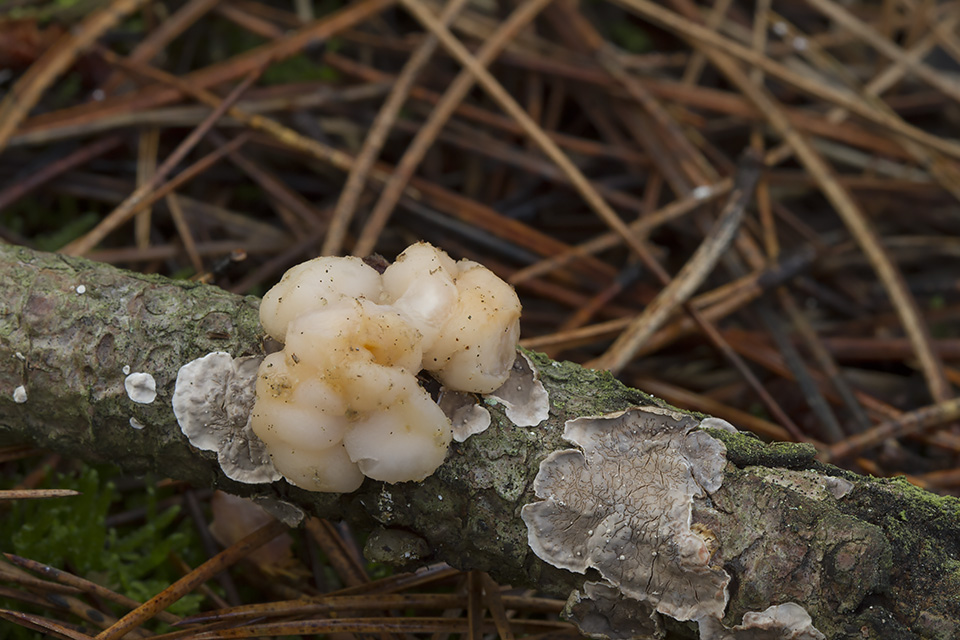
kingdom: Fungi
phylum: Basidiomycota
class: Tremellomycetes
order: Tremellales
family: Naemateliaceae
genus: Naematelia
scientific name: Naematelia encephala
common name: fyrre-bævresvamp
